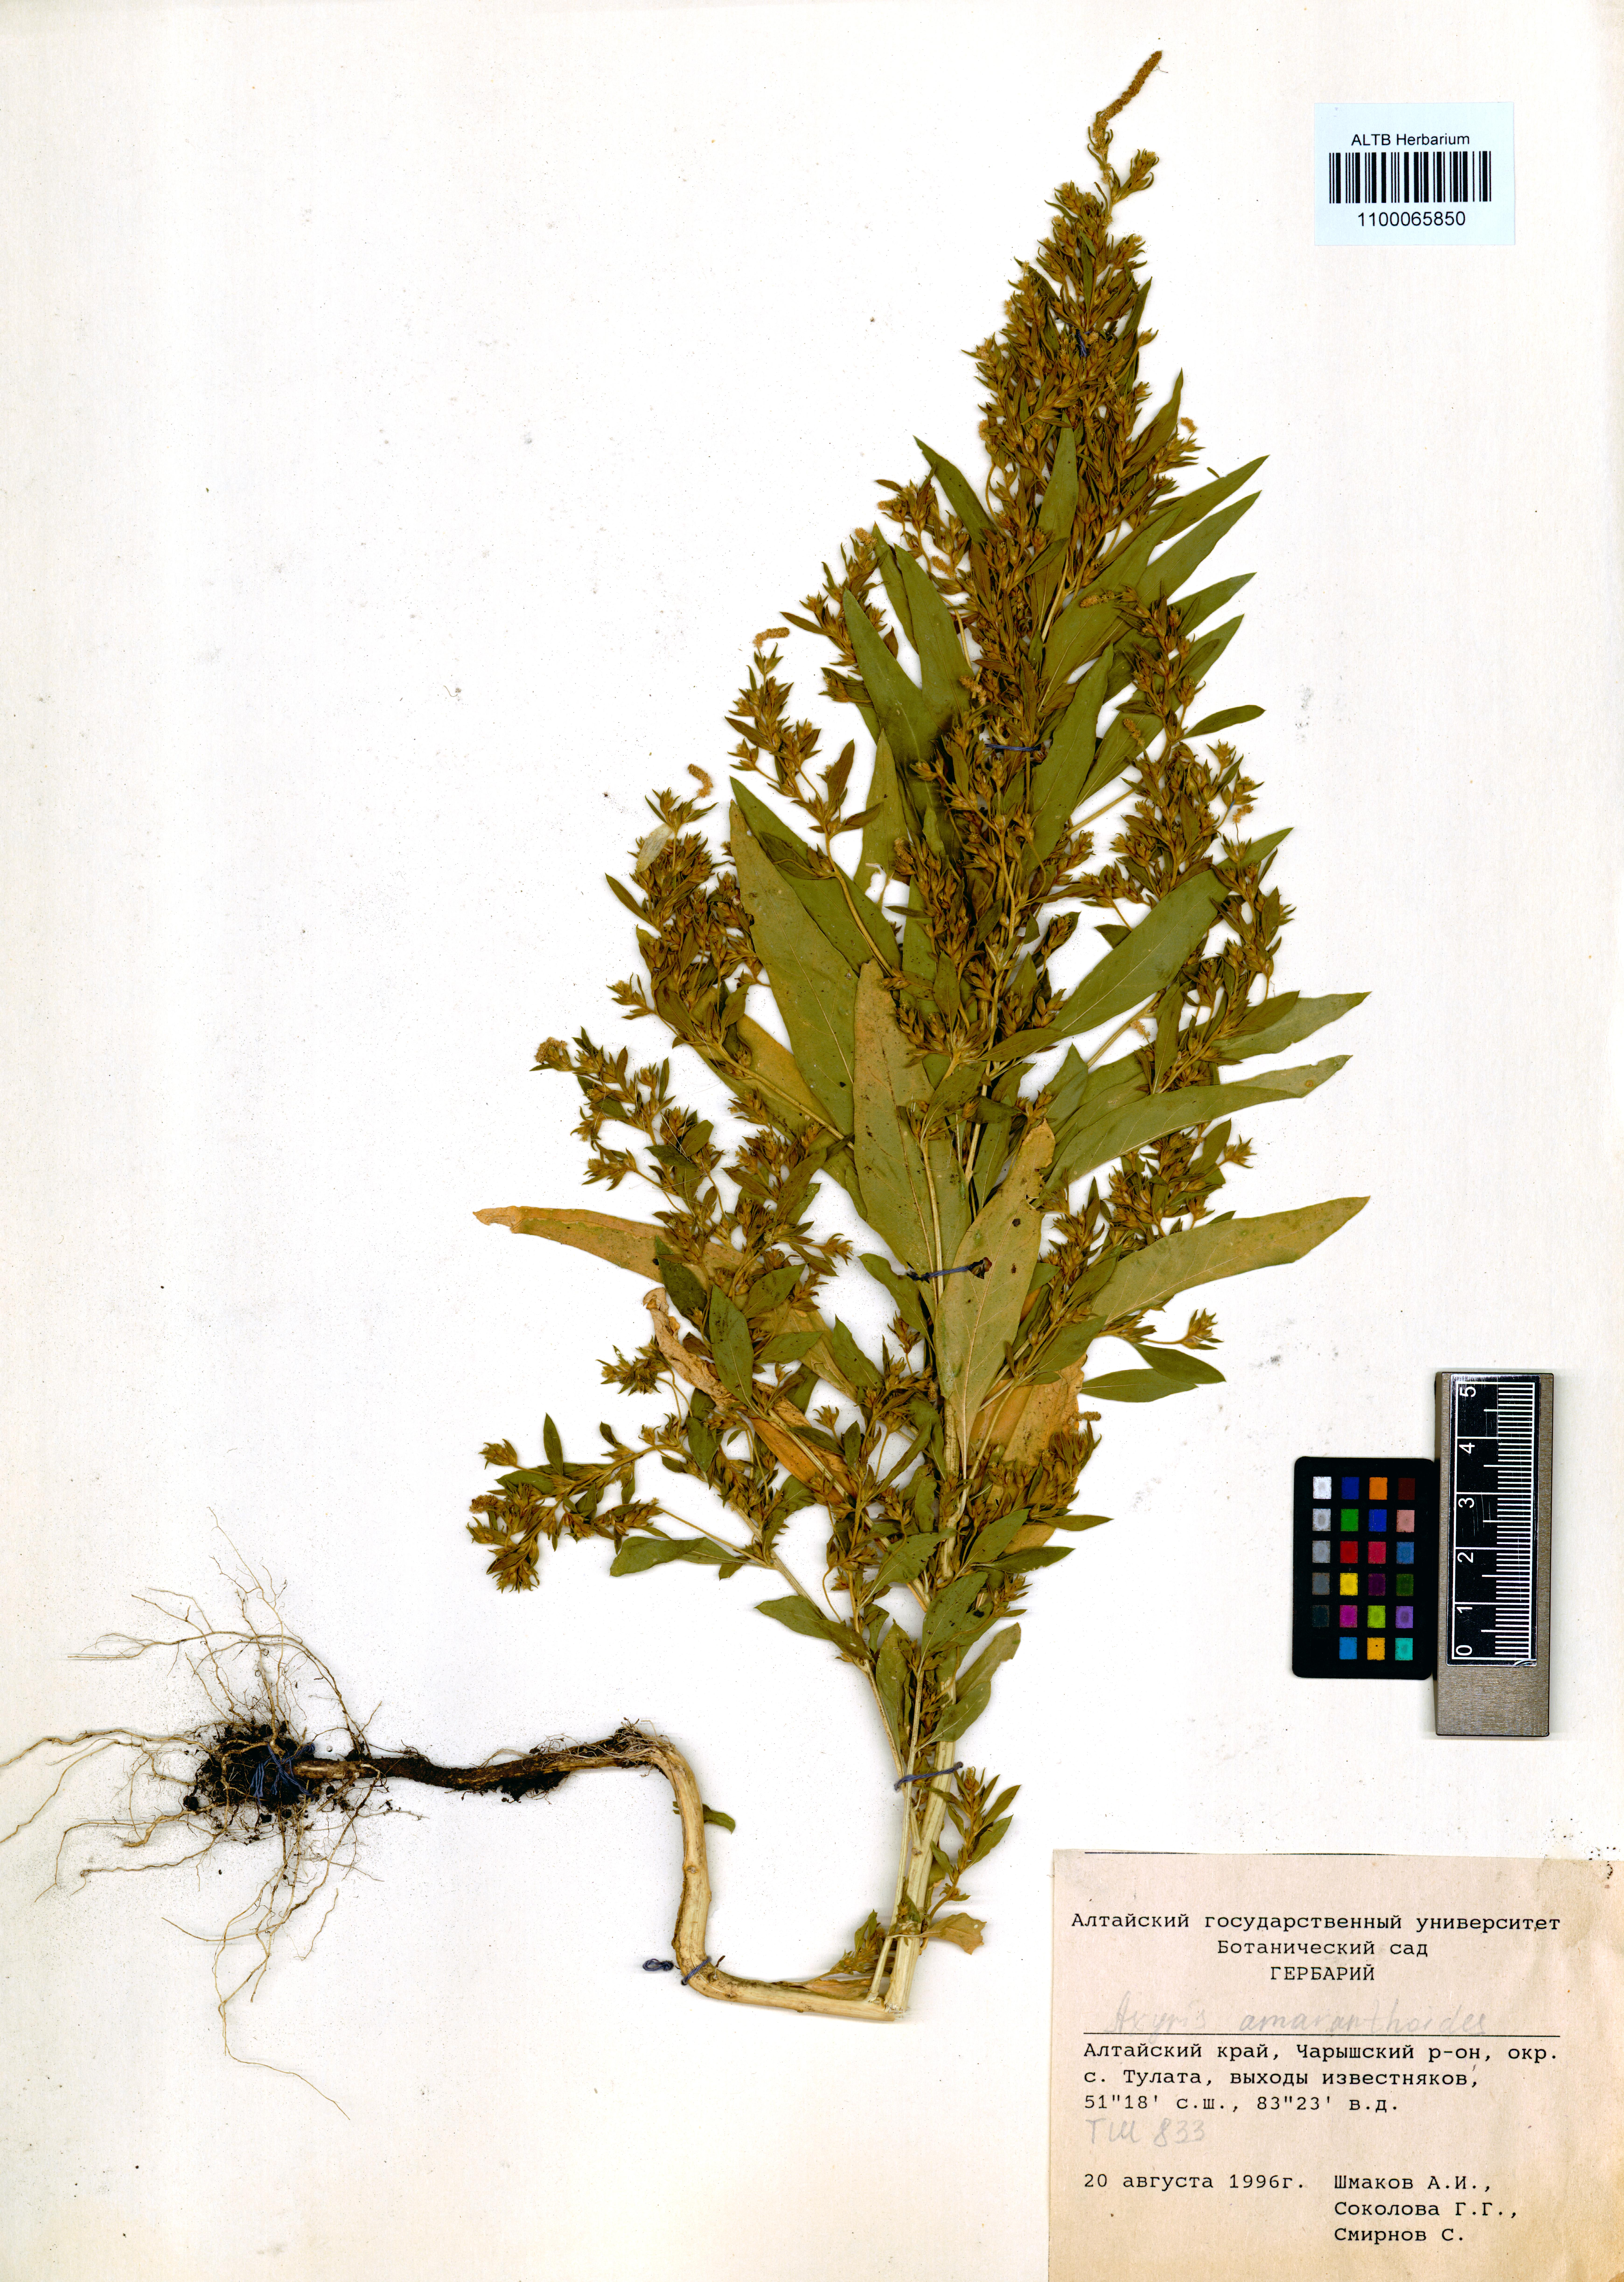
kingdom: Plantae
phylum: Tracheophyta
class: Magnoliopsida
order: Caryophyllales
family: Amaranthaceae
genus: Axyris
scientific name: Axyris amaranthoides
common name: Russian pigweed
